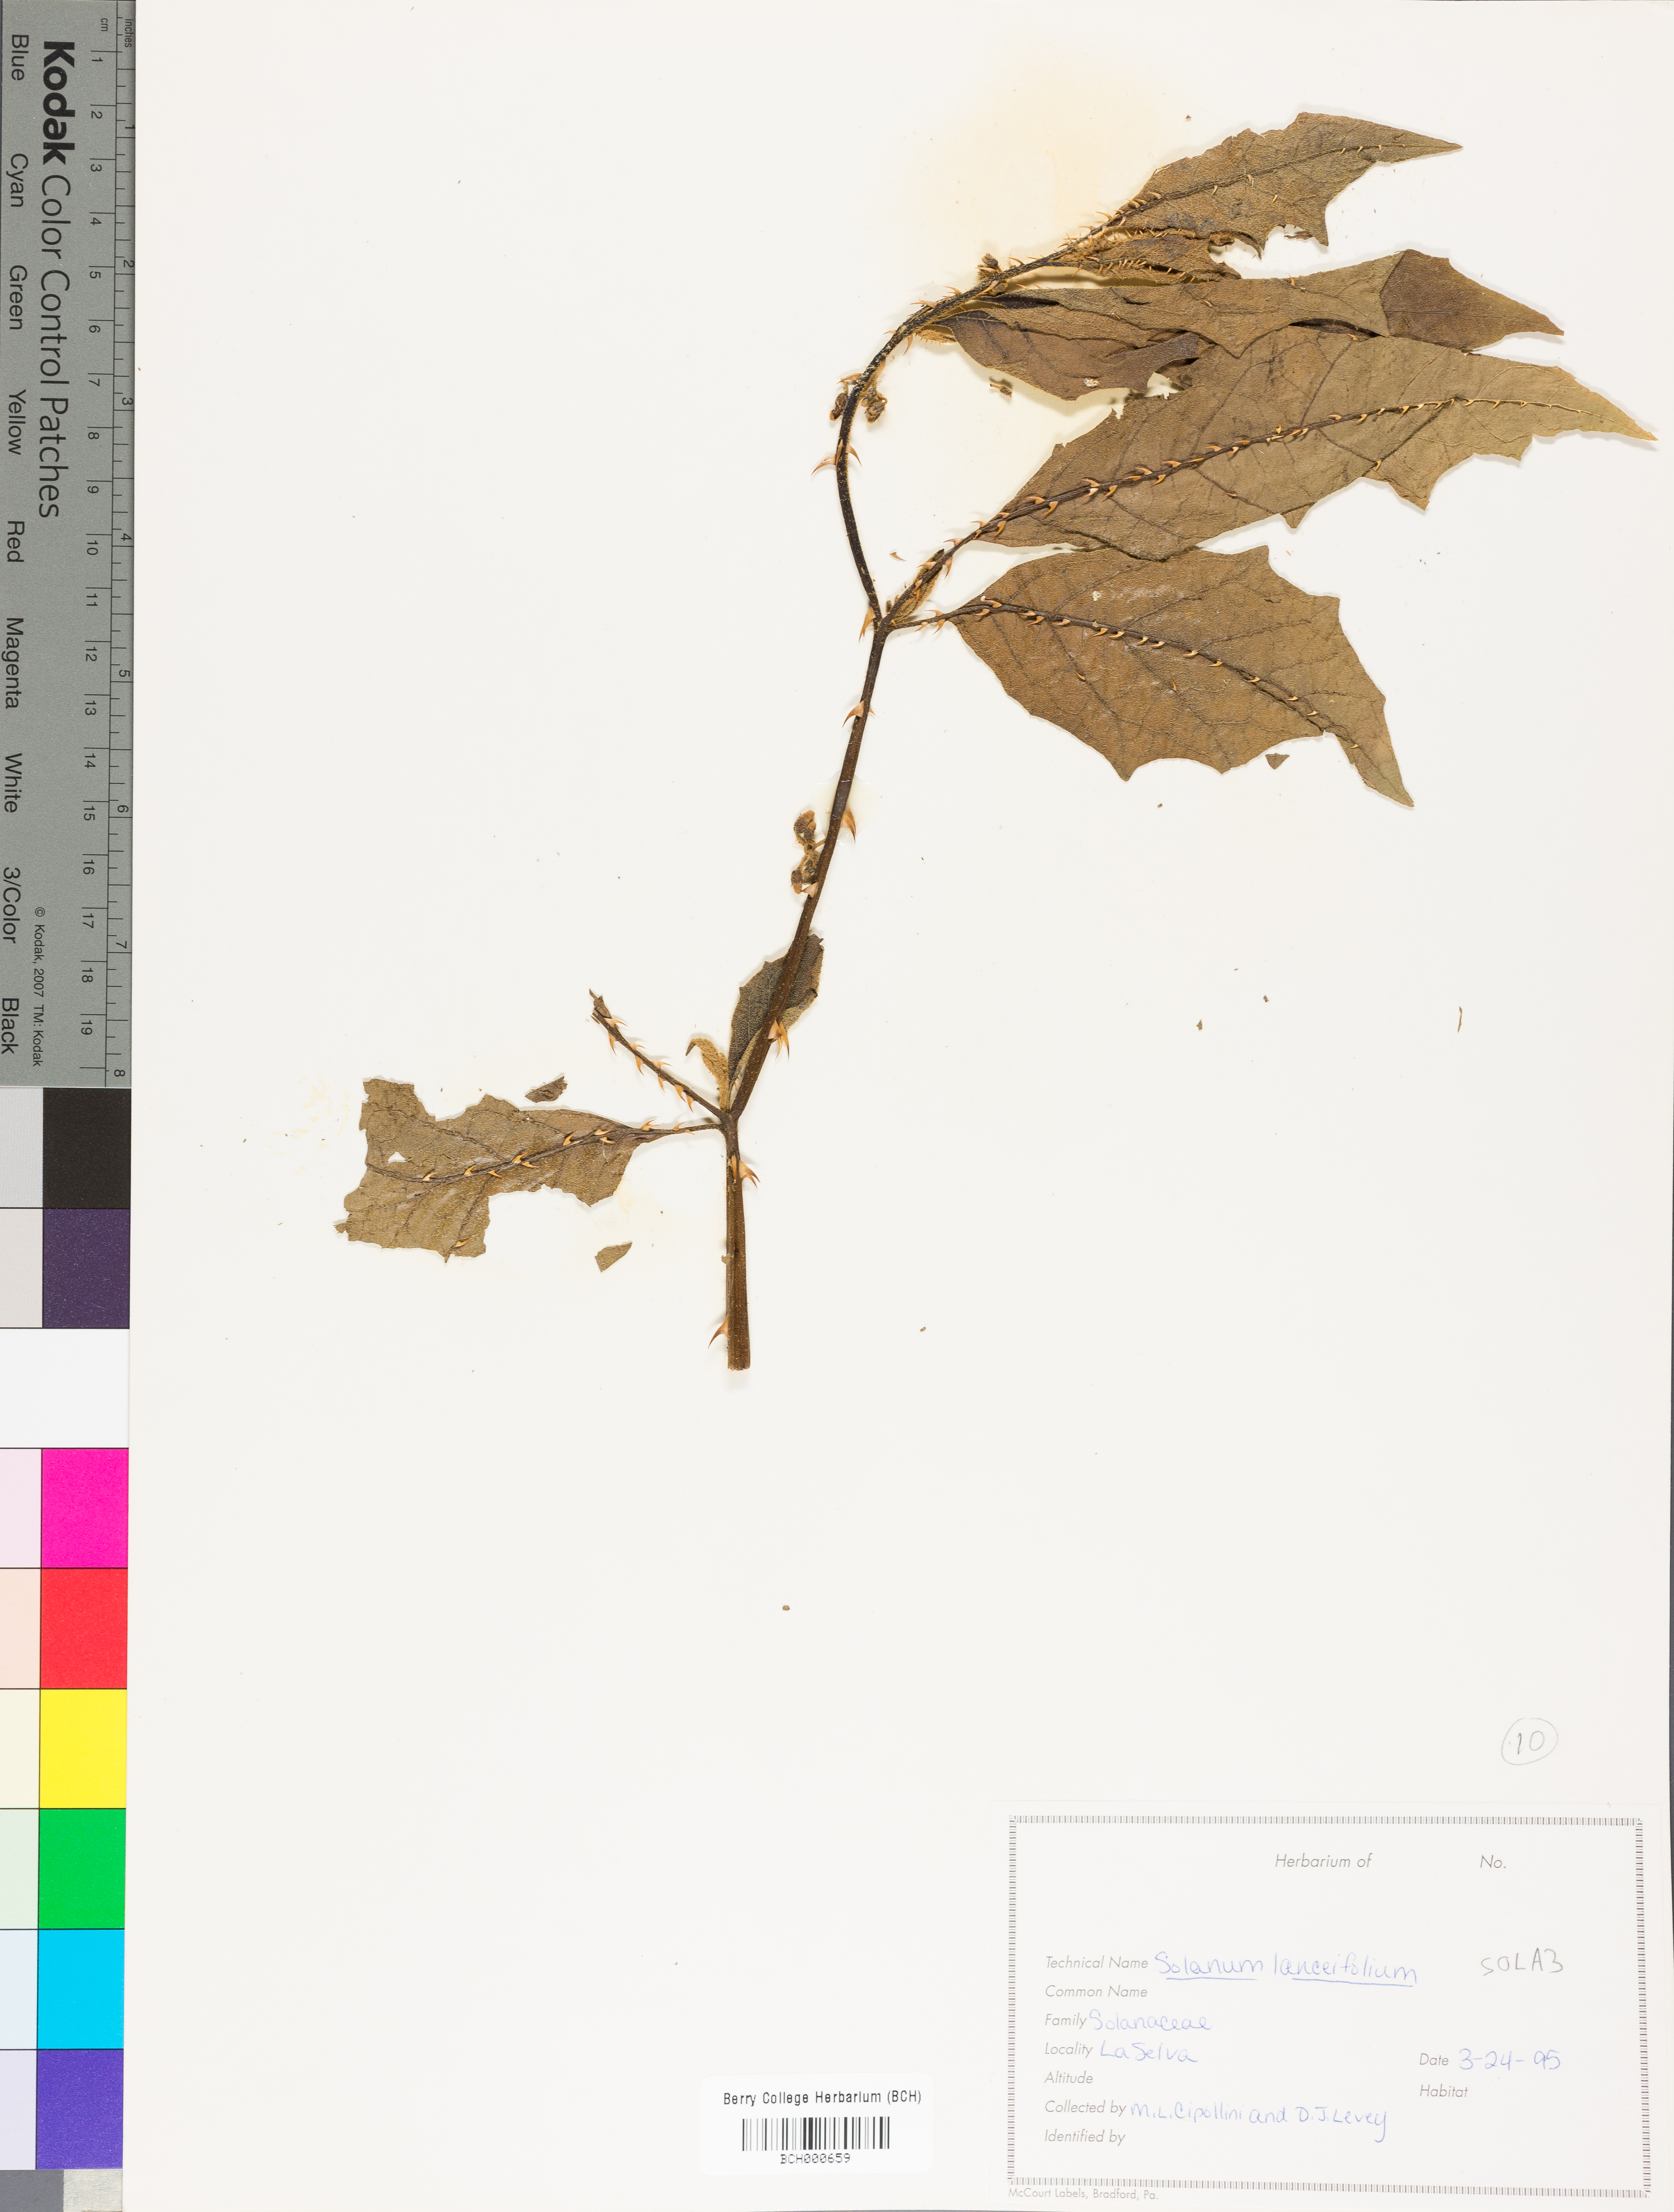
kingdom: Plantae
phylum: Tracheophyta
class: Magnoliopsida
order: Solanales
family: Solanaceae
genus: Solanum
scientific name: Solanum lanceifolium
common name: Lanceleaf nightshade
